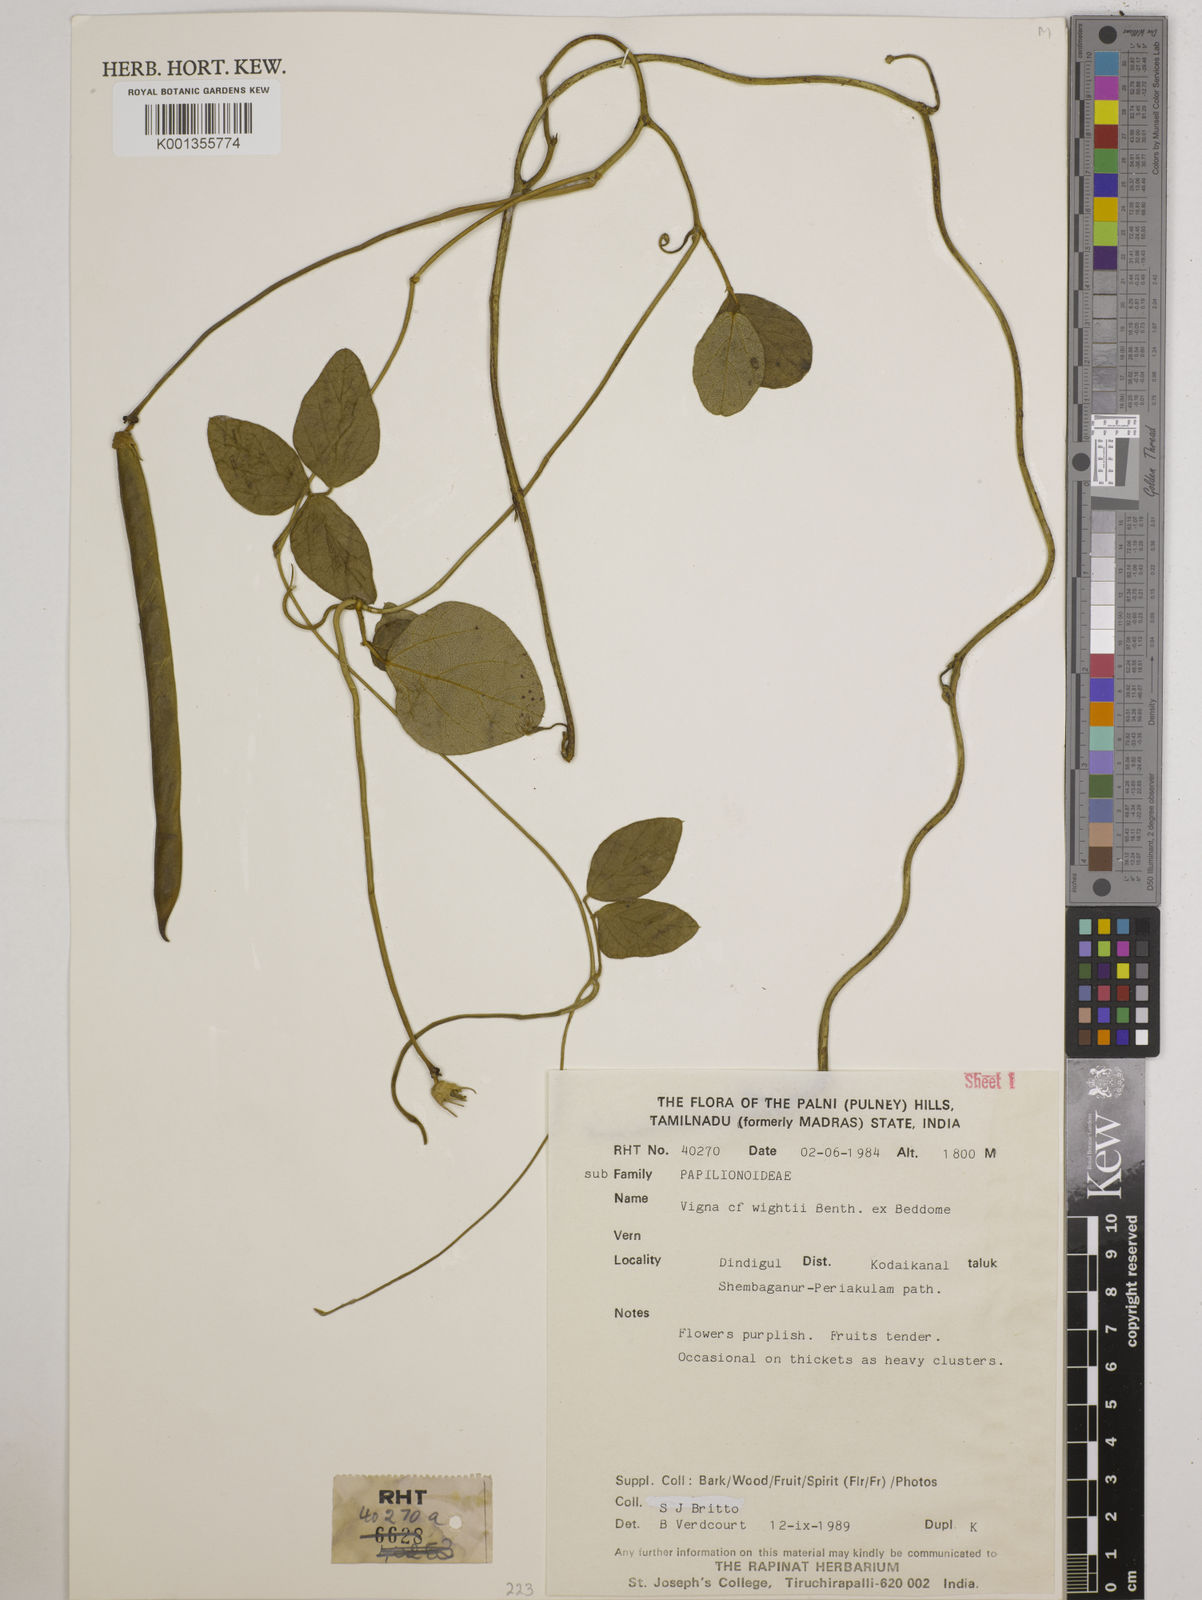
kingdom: Plantae
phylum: Tracheophyta
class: Magnoliopsida
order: Fabales
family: Fabaceae
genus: Vigna
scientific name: Vigna vexillata
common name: Zombi pea
